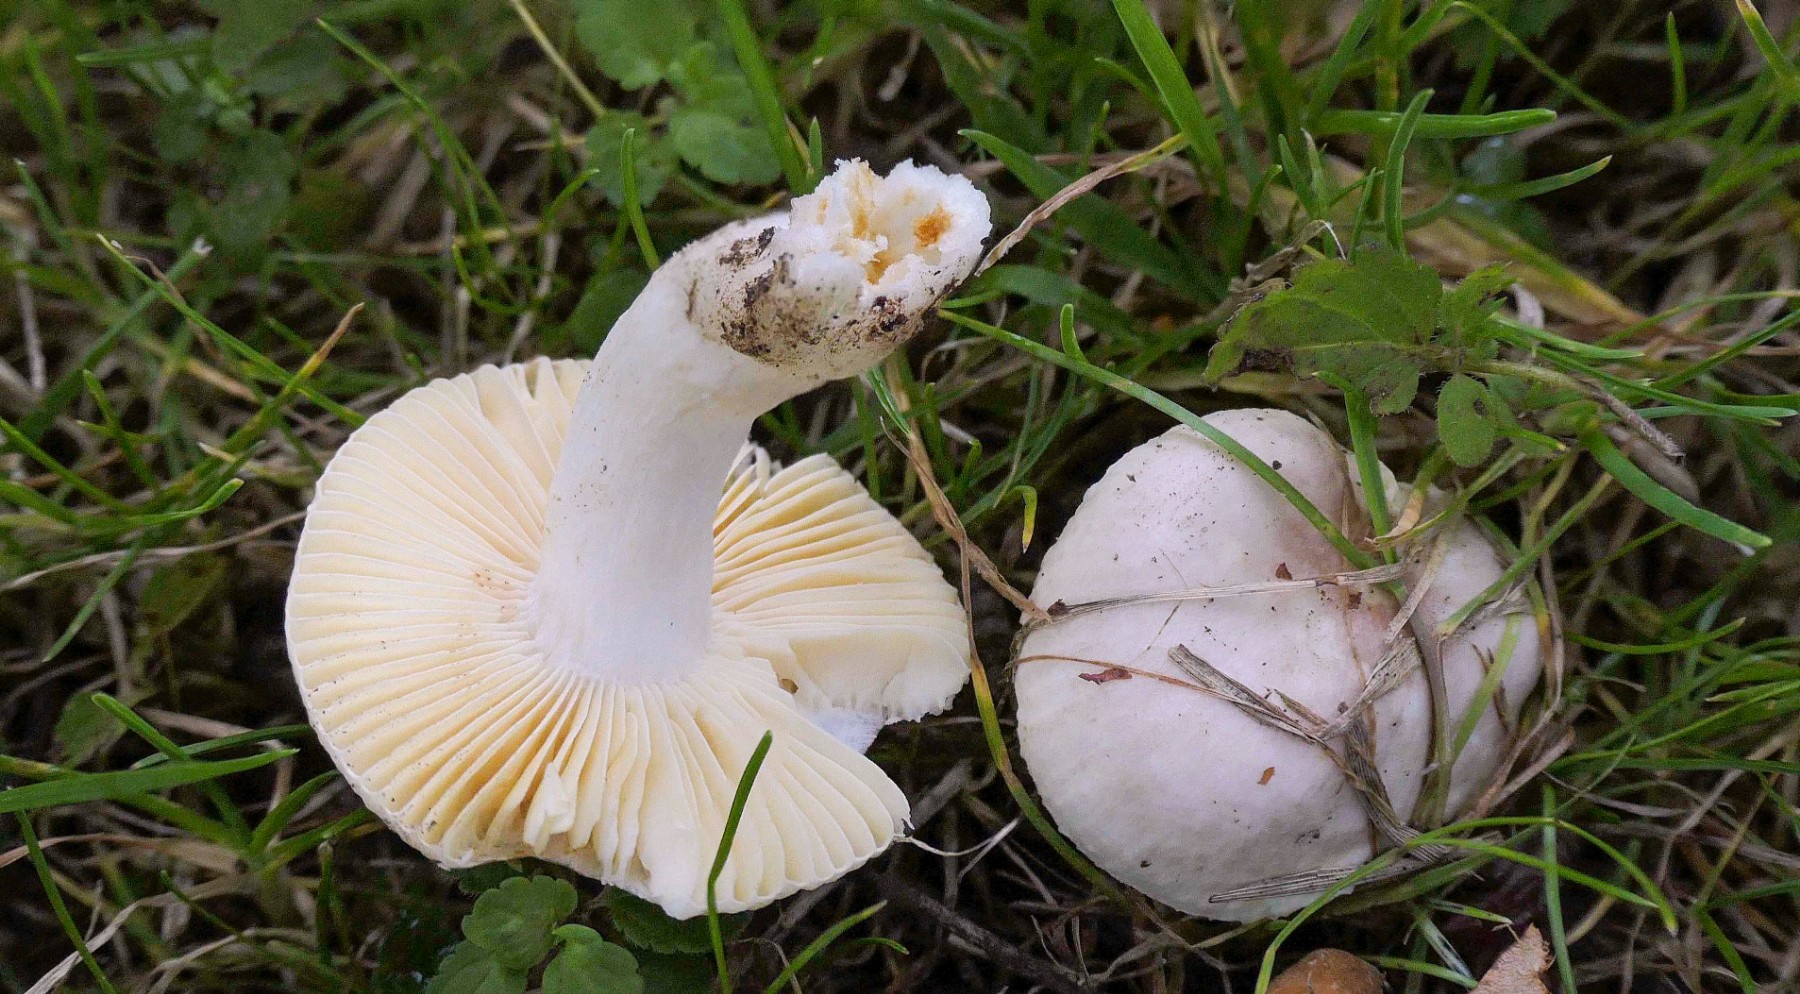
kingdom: Fungi
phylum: Basidiomycota
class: Agaricomycetes
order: Russulales
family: Russulaceae
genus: Russula
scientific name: Russula odorata
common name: duft-skørhat
